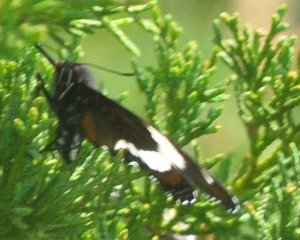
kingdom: Animalia
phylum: Arthropoda
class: Insecta
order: Lepidoptera
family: Nymphalidae
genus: Limenitis
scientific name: Limenitis arthemis
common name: Red-spotted Admiral
